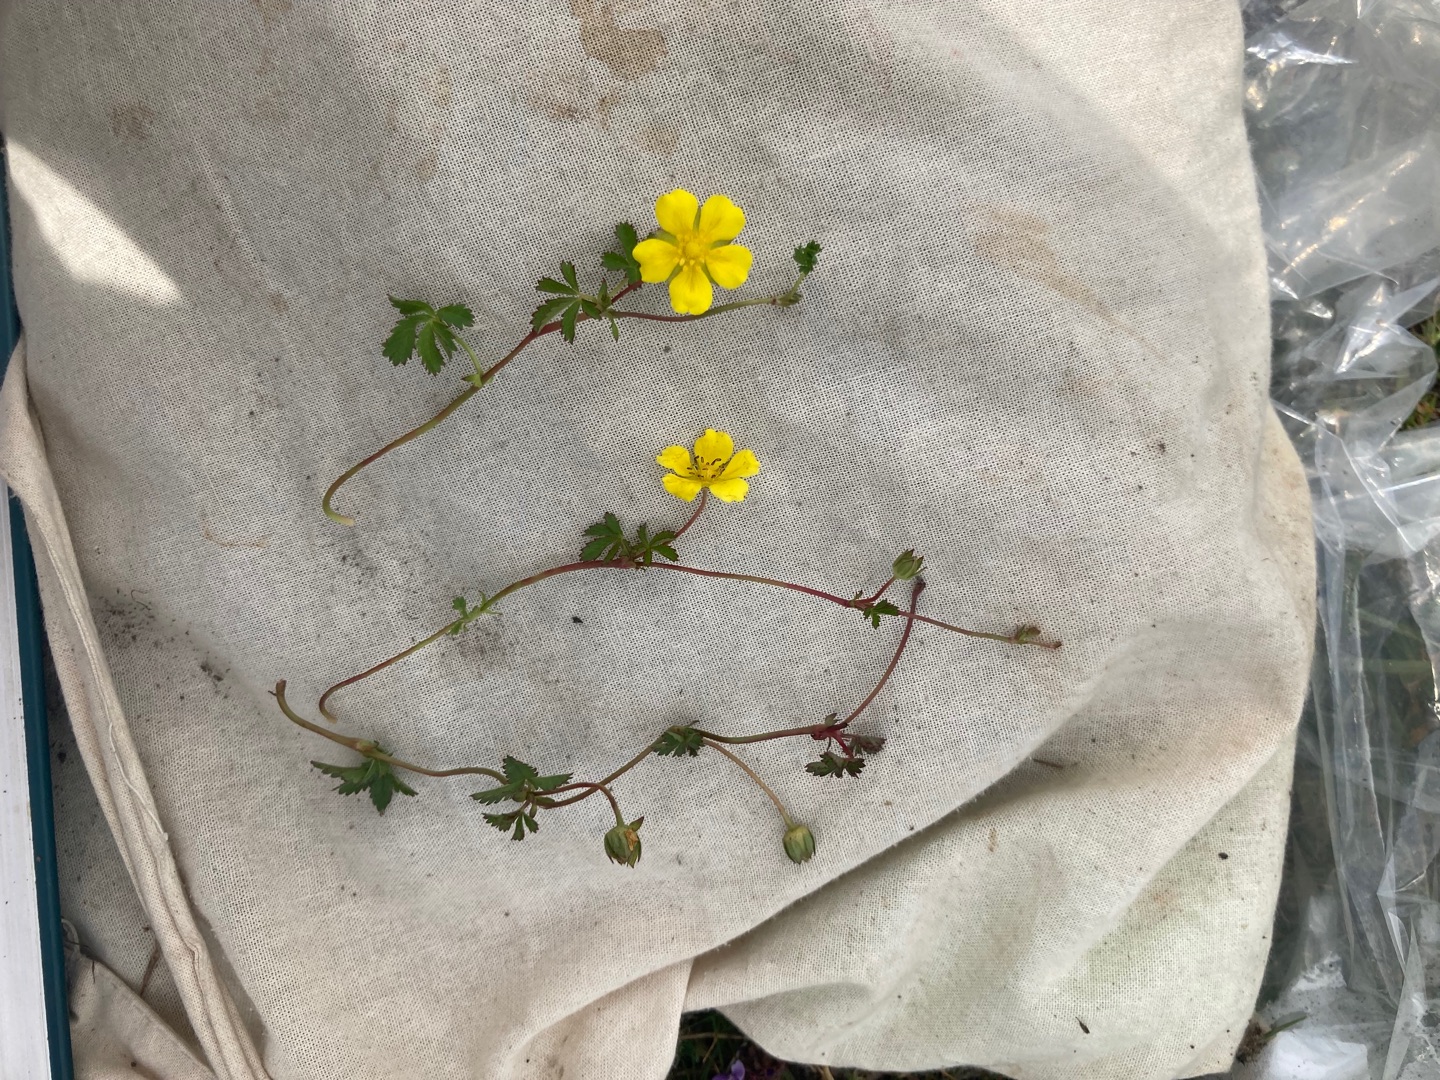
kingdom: Plantae
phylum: Tracheophyta
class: Magnoliopsida
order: Rosales
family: Rosaceae
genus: Potentilla
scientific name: Potentilla reptans
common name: Krybende potentil
